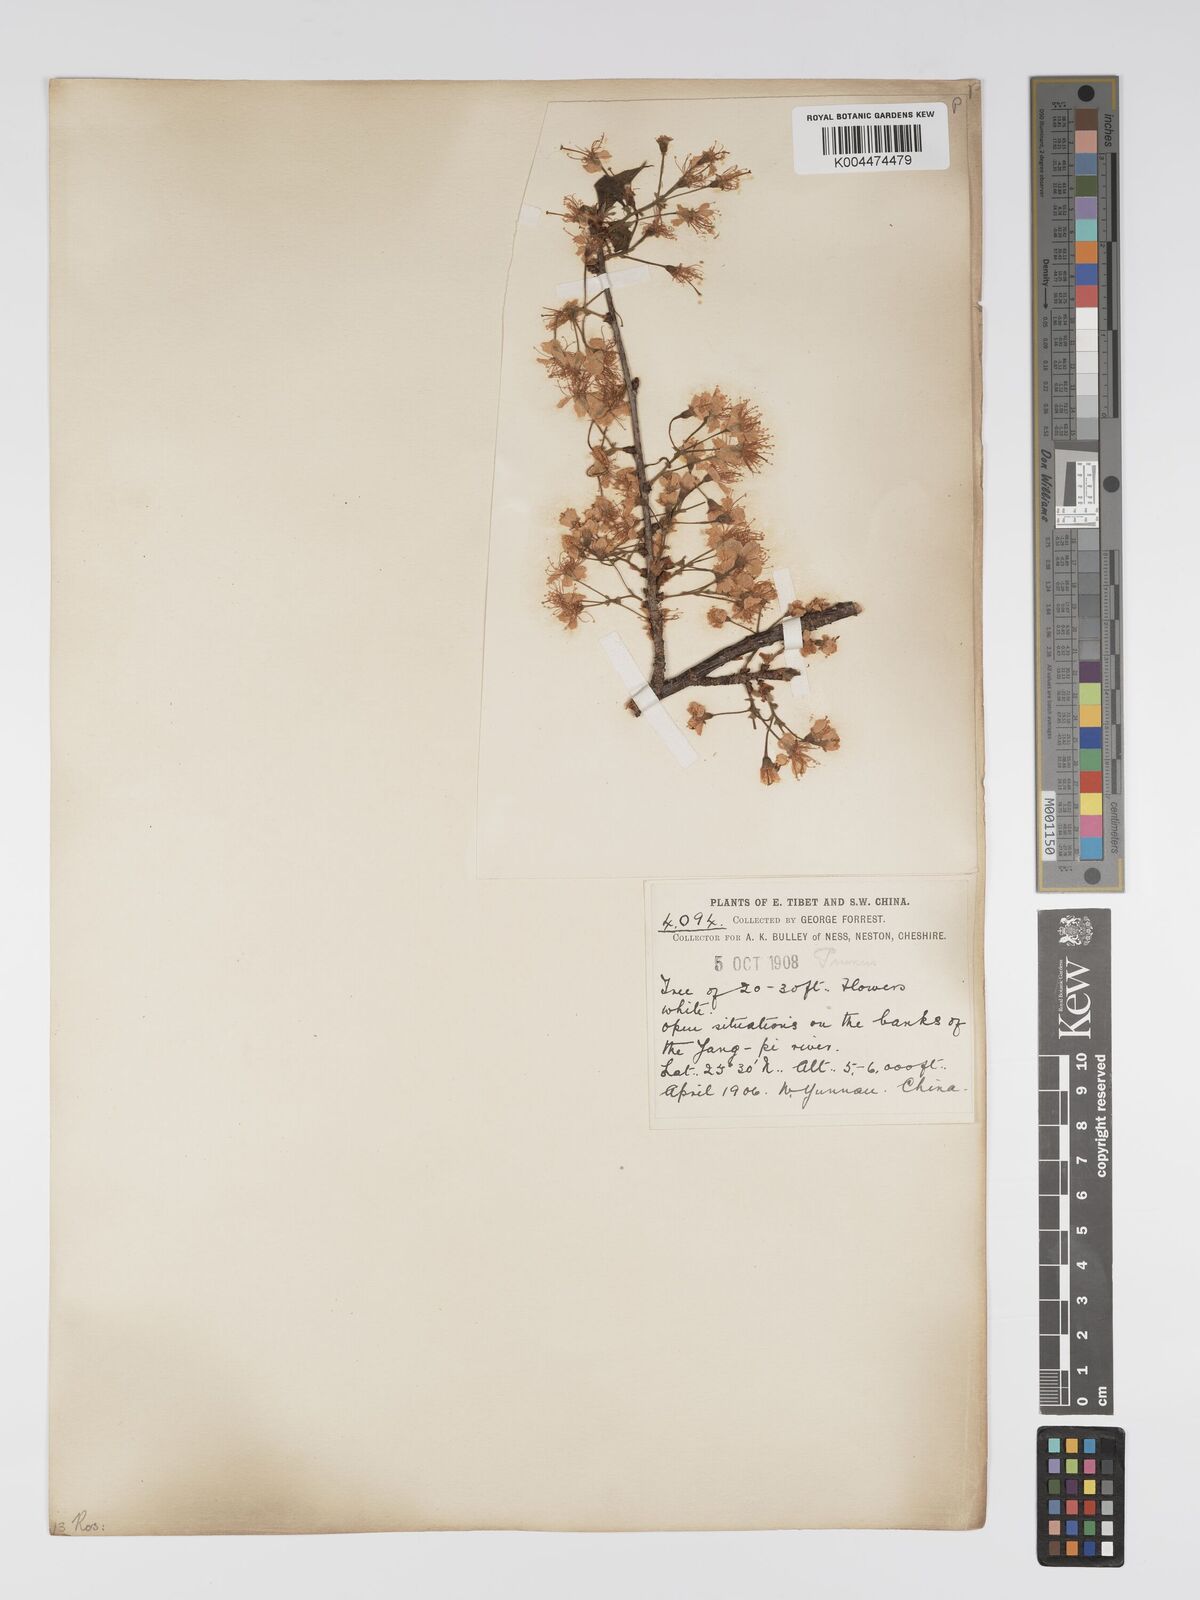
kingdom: Plantae
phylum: Tracheophyta
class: Magnoliopsida
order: Rosales
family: Rosaceae
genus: Prunus
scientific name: Prunus
